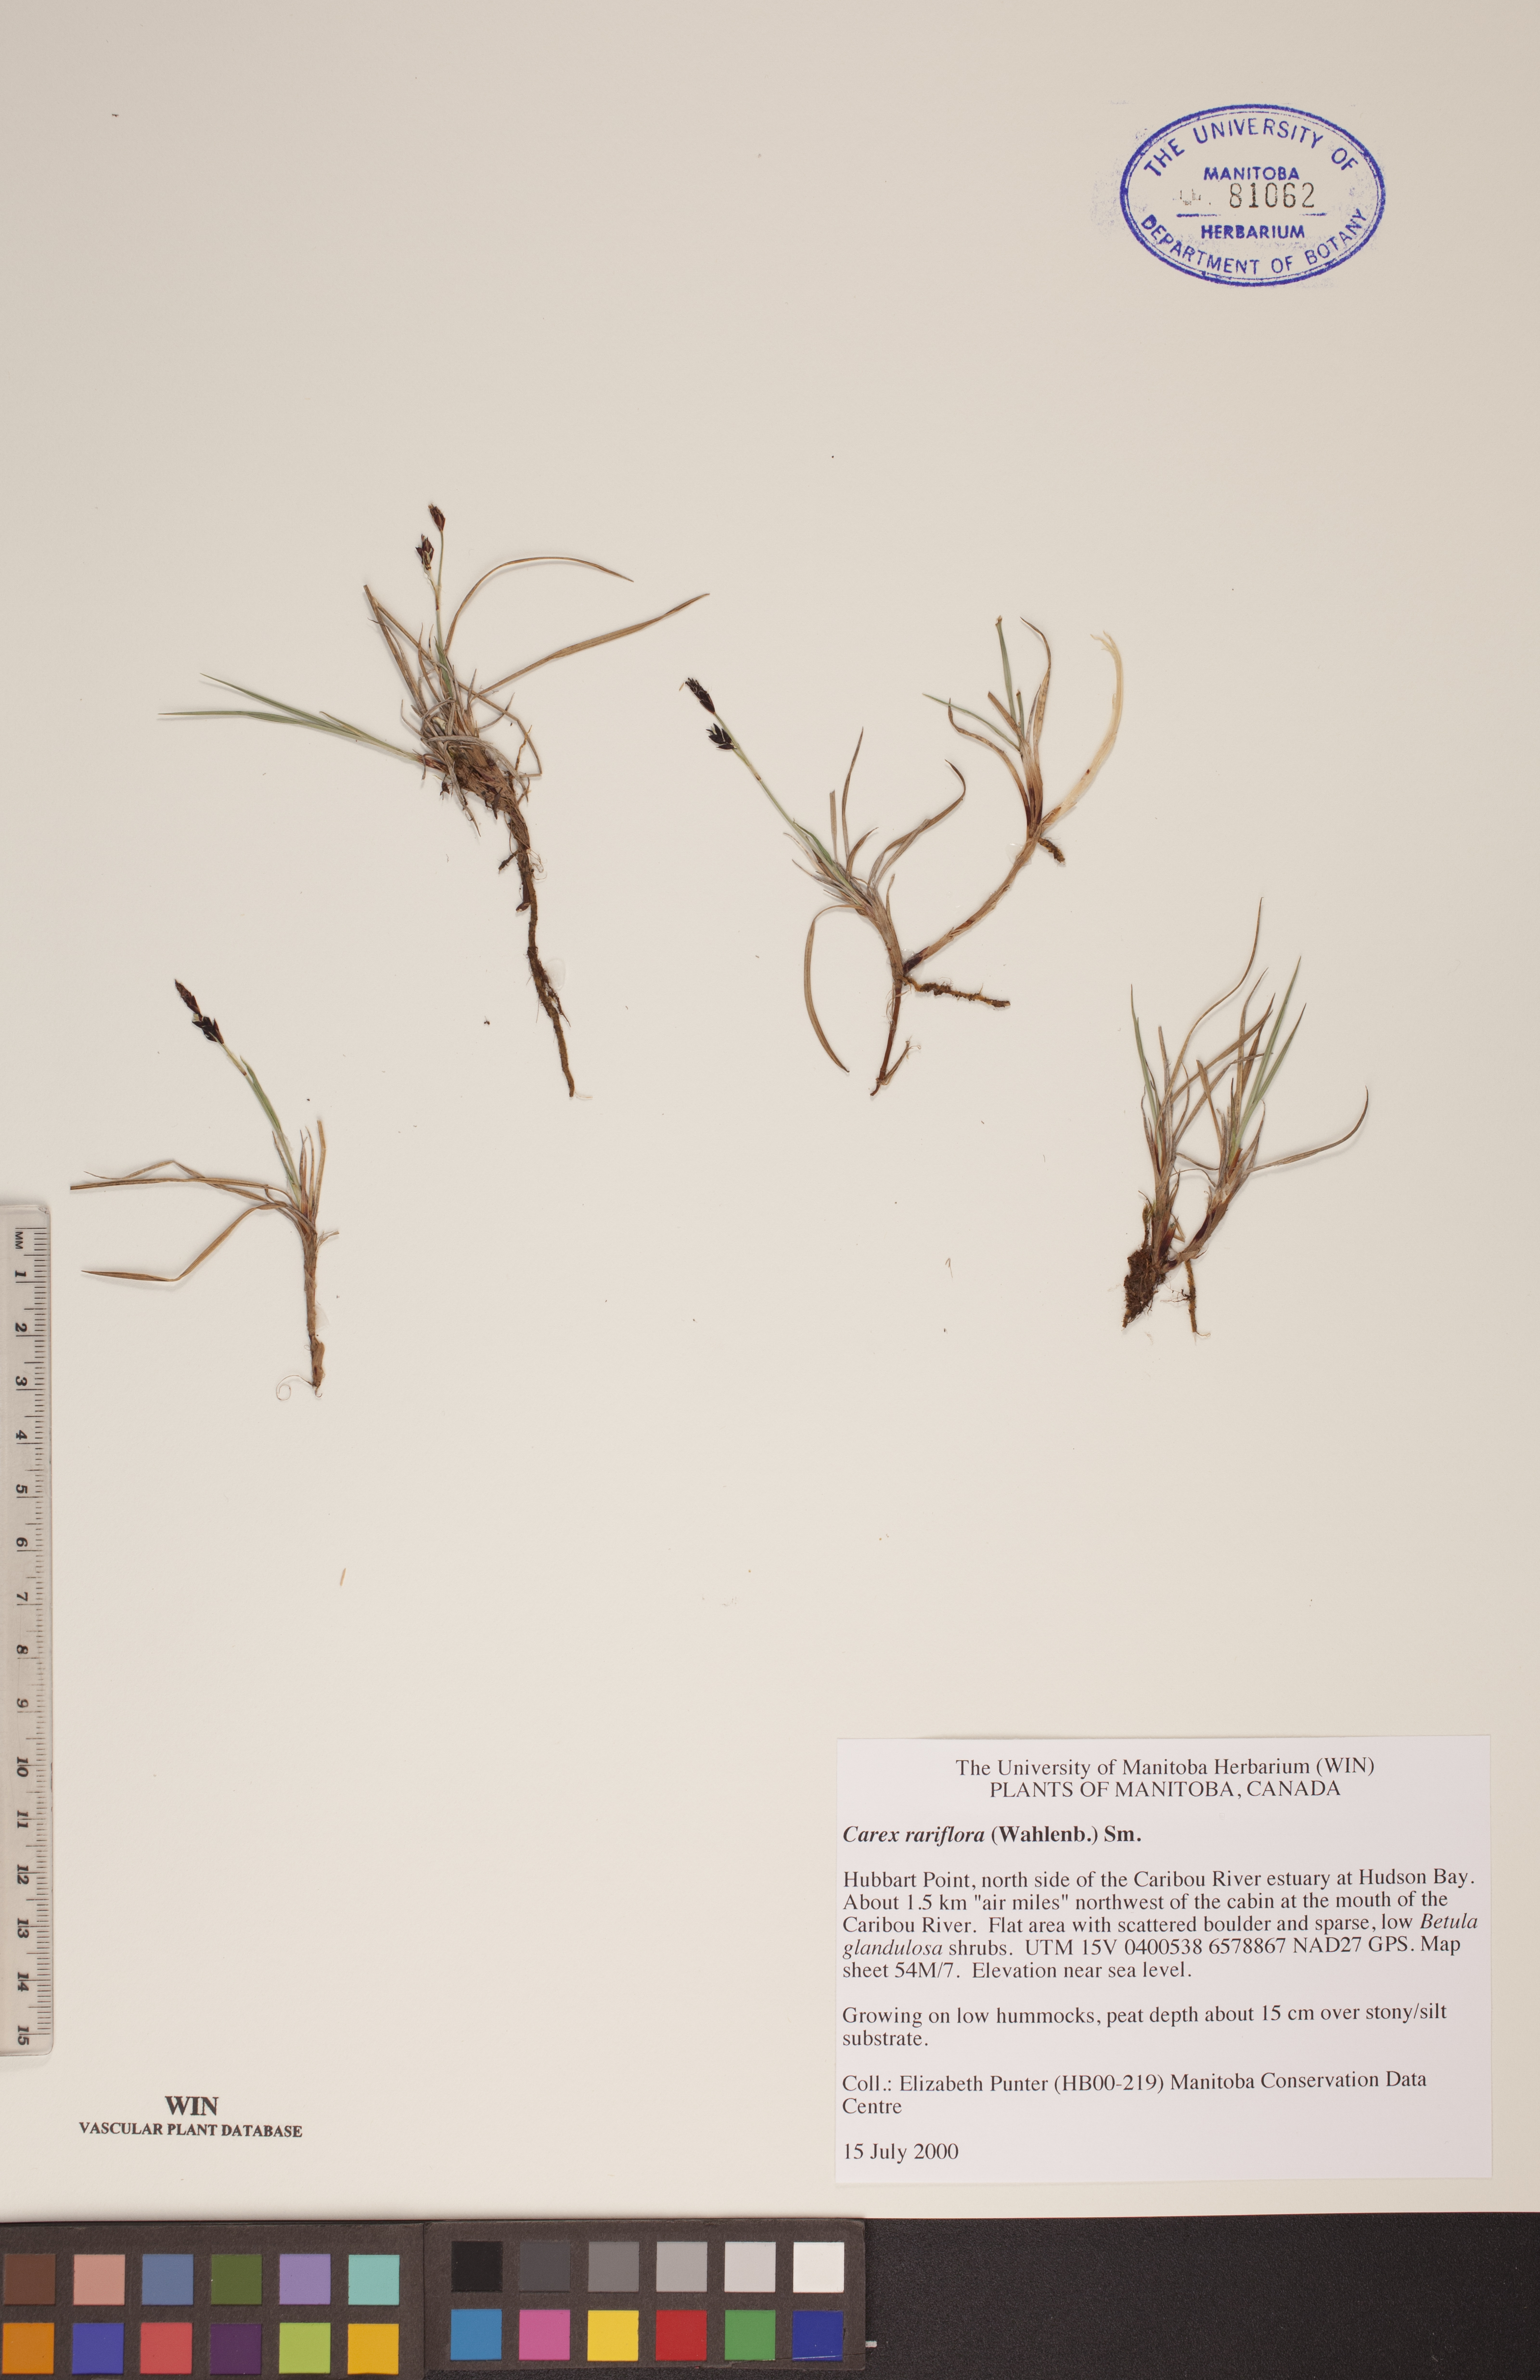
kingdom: Plantae
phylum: Tracheophyta
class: Liliopsida
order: Poales
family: Cyperaceae
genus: Carex
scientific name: Carex rariflora
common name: Loose-flowered alpine sedge
